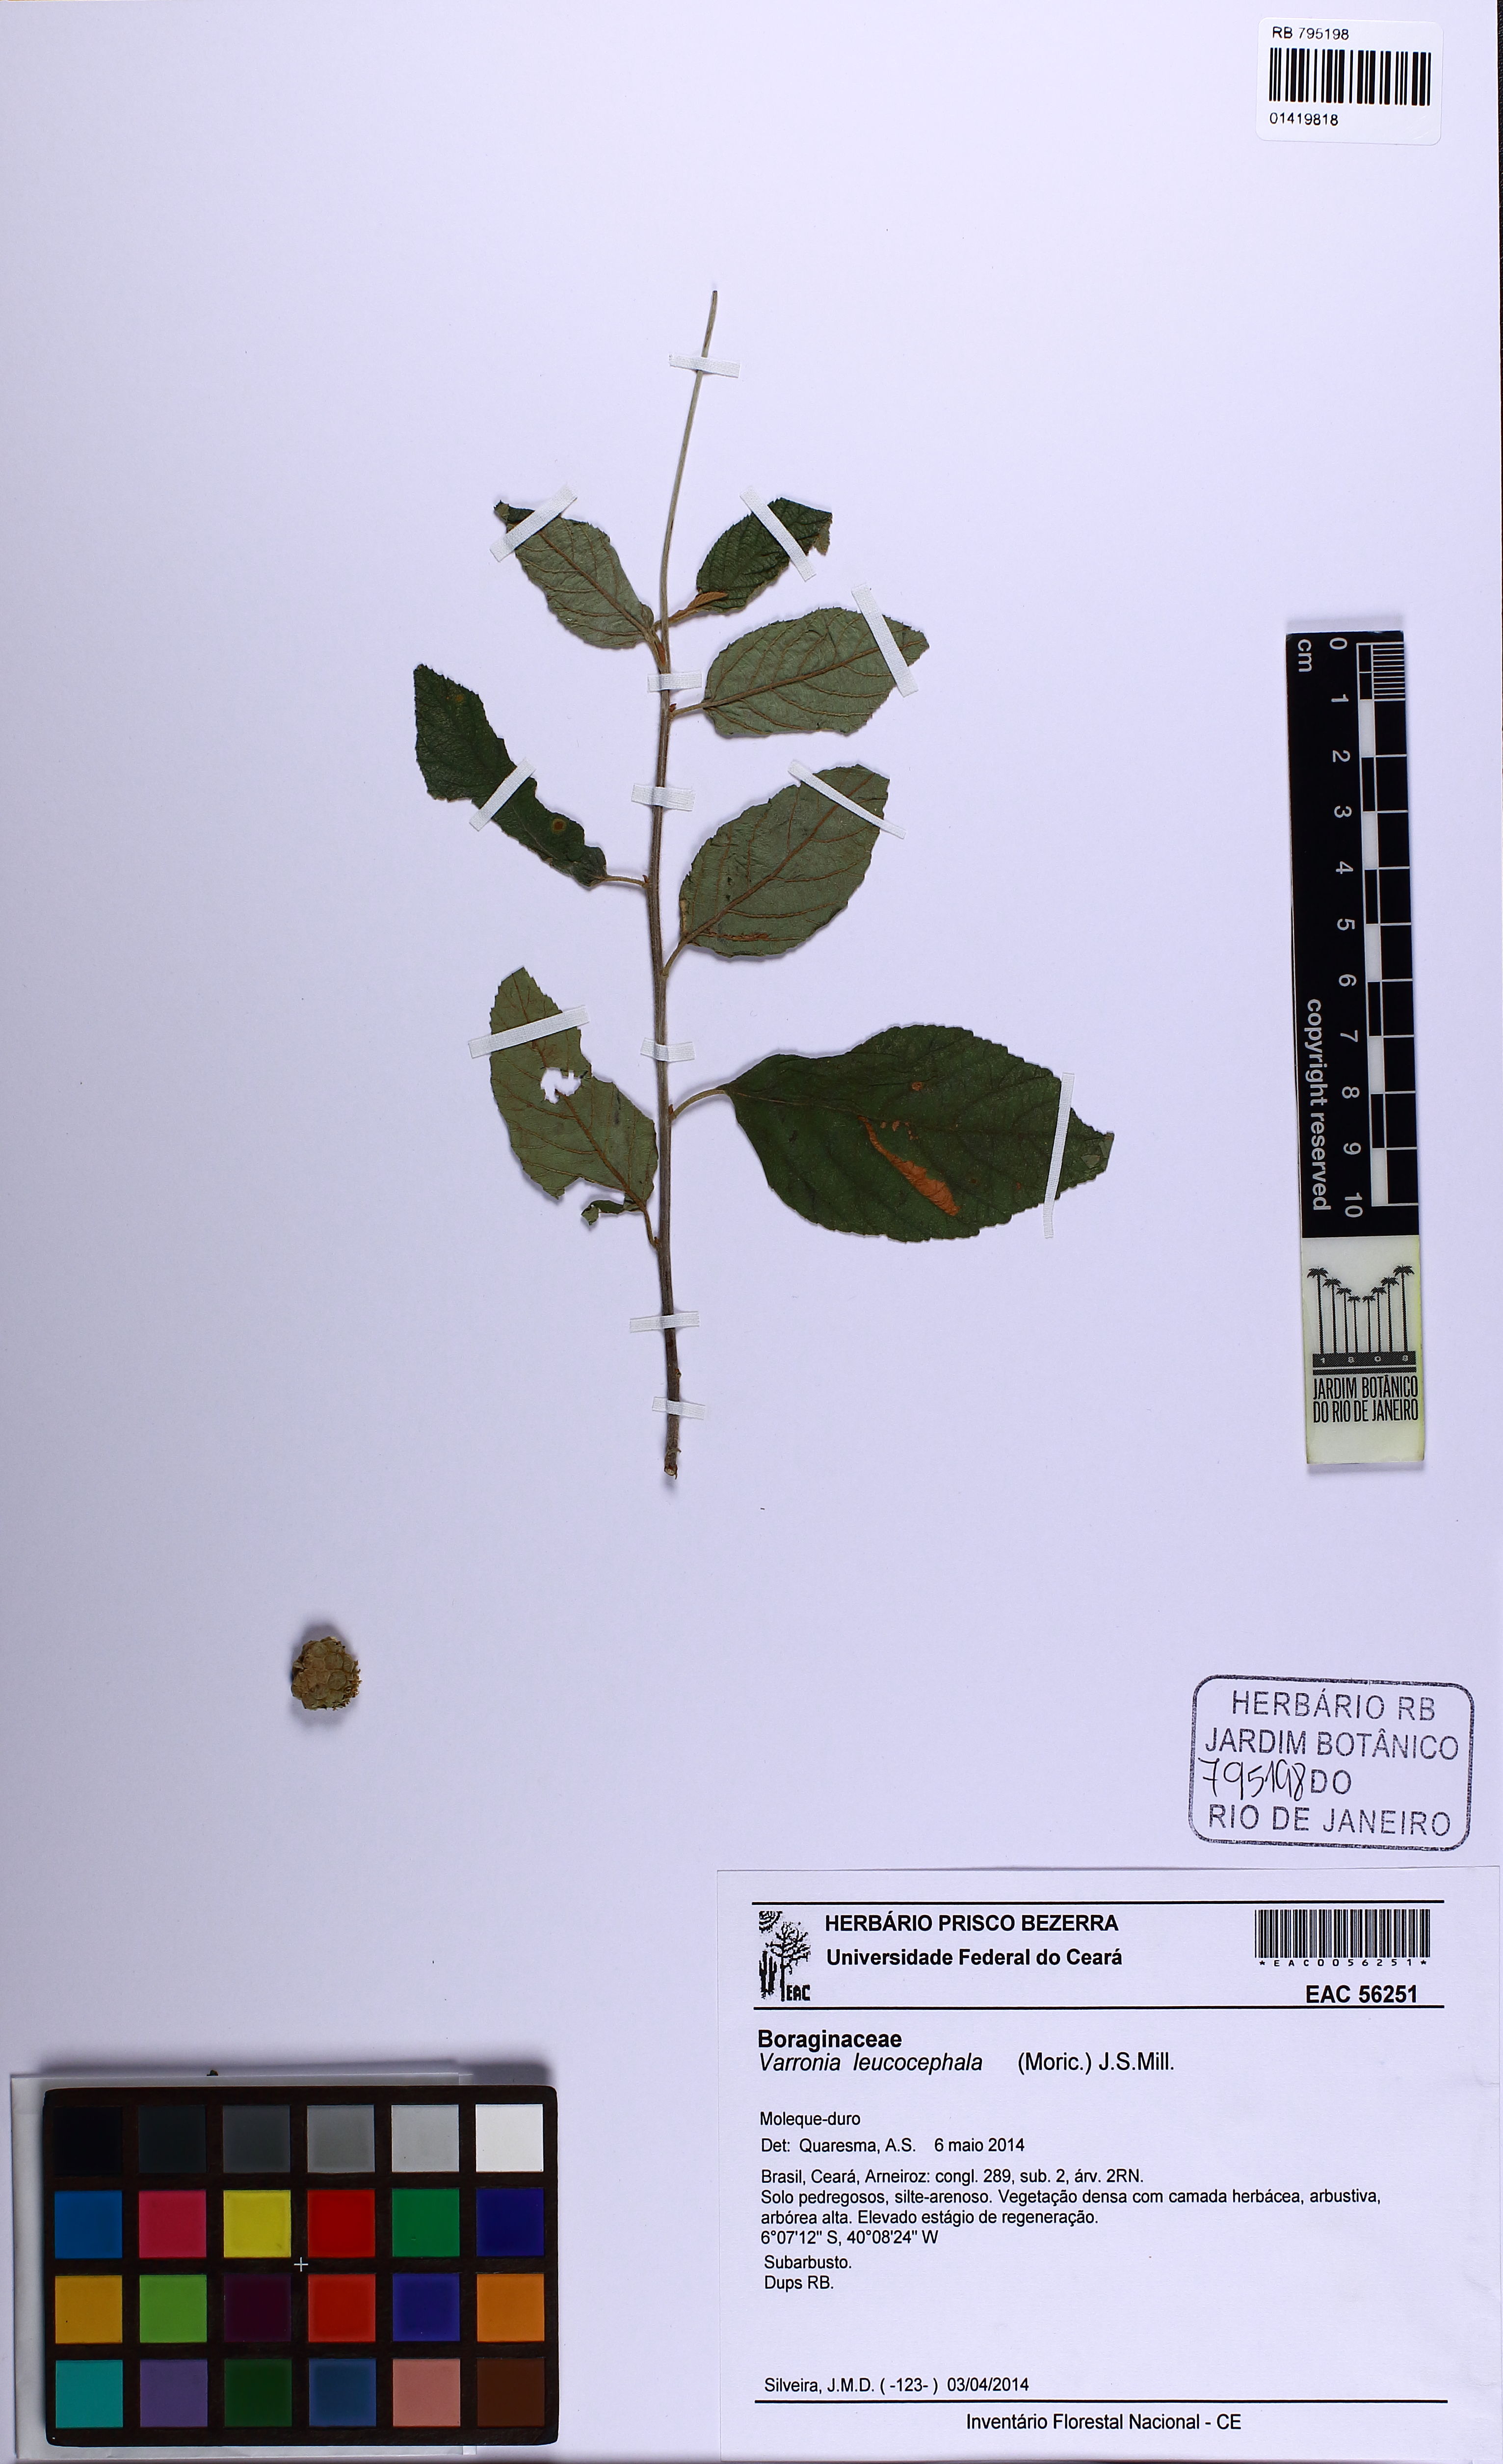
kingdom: Plantae
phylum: Tracheophyta
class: Magnoliopsida
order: Boraginales
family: Cordiaceae
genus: Varronia
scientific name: Varronia leucocephala
